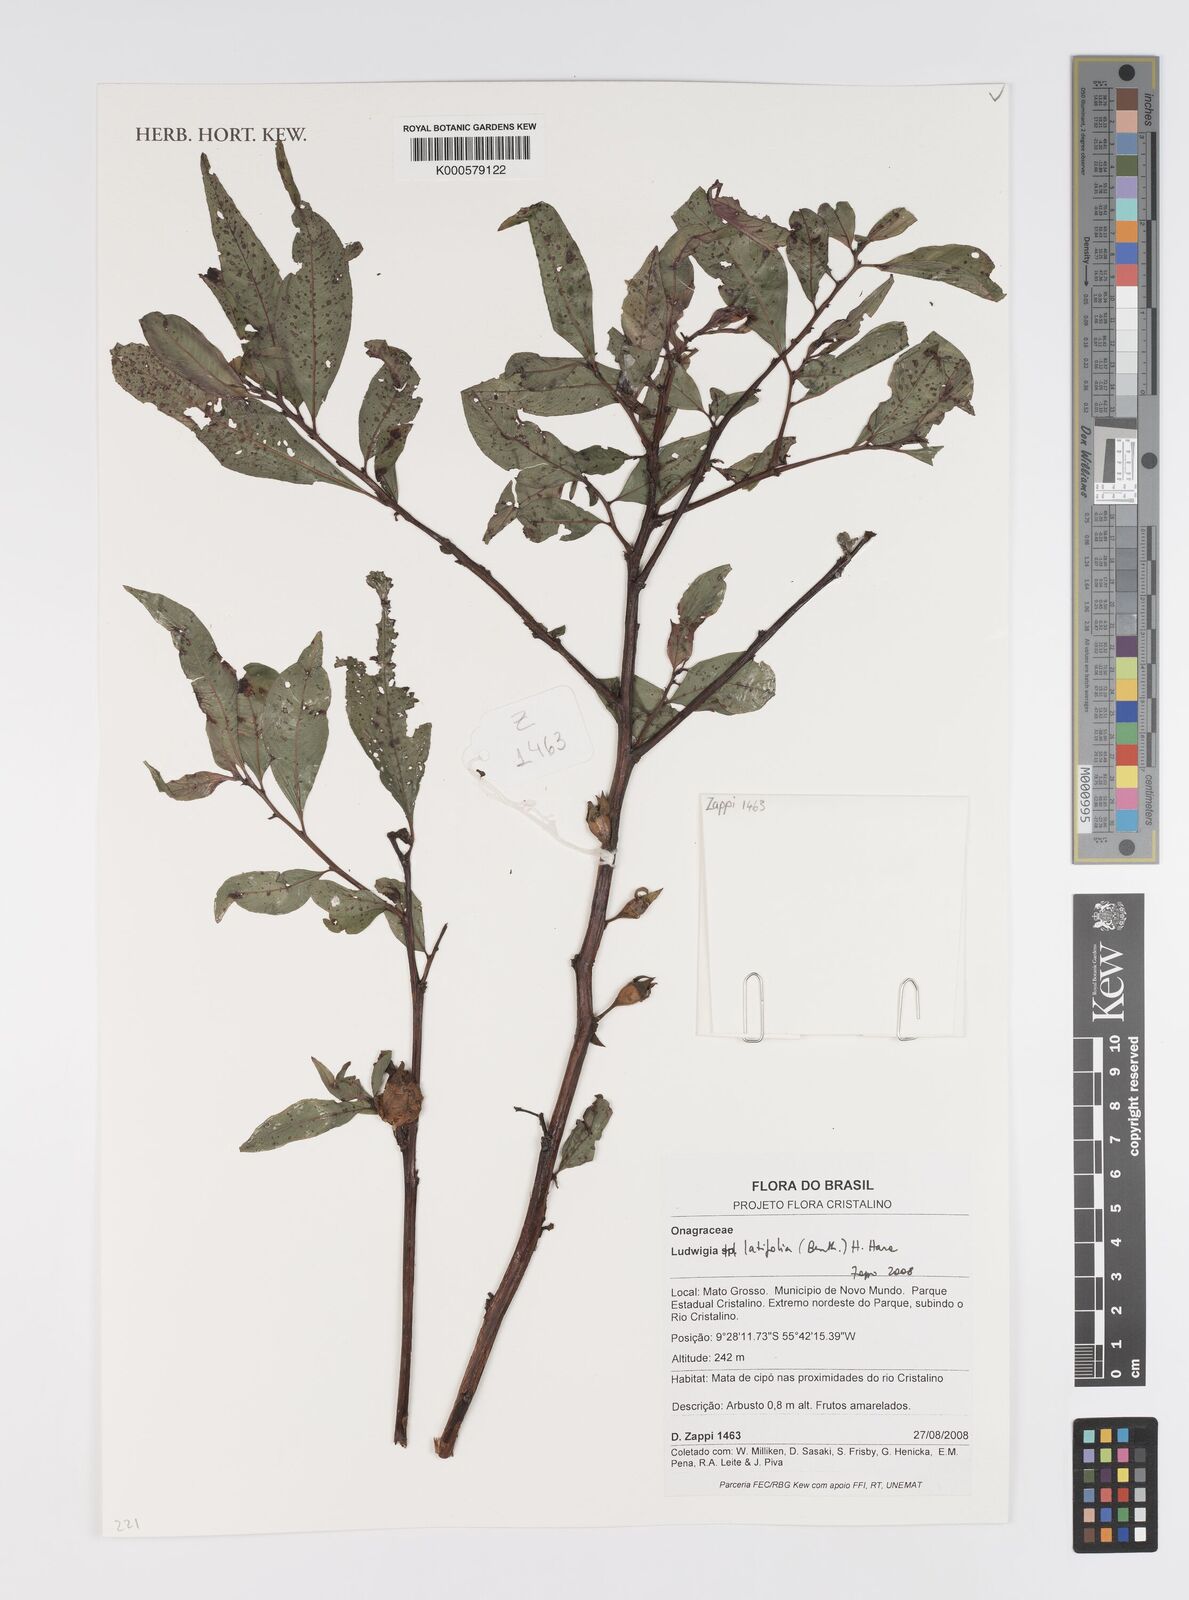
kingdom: Plantae
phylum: Tracheophyta
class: Magnoliopsida
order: Myrtales
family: Onagraceae
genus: Ludwigia
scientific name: Ludwigia latifolia
